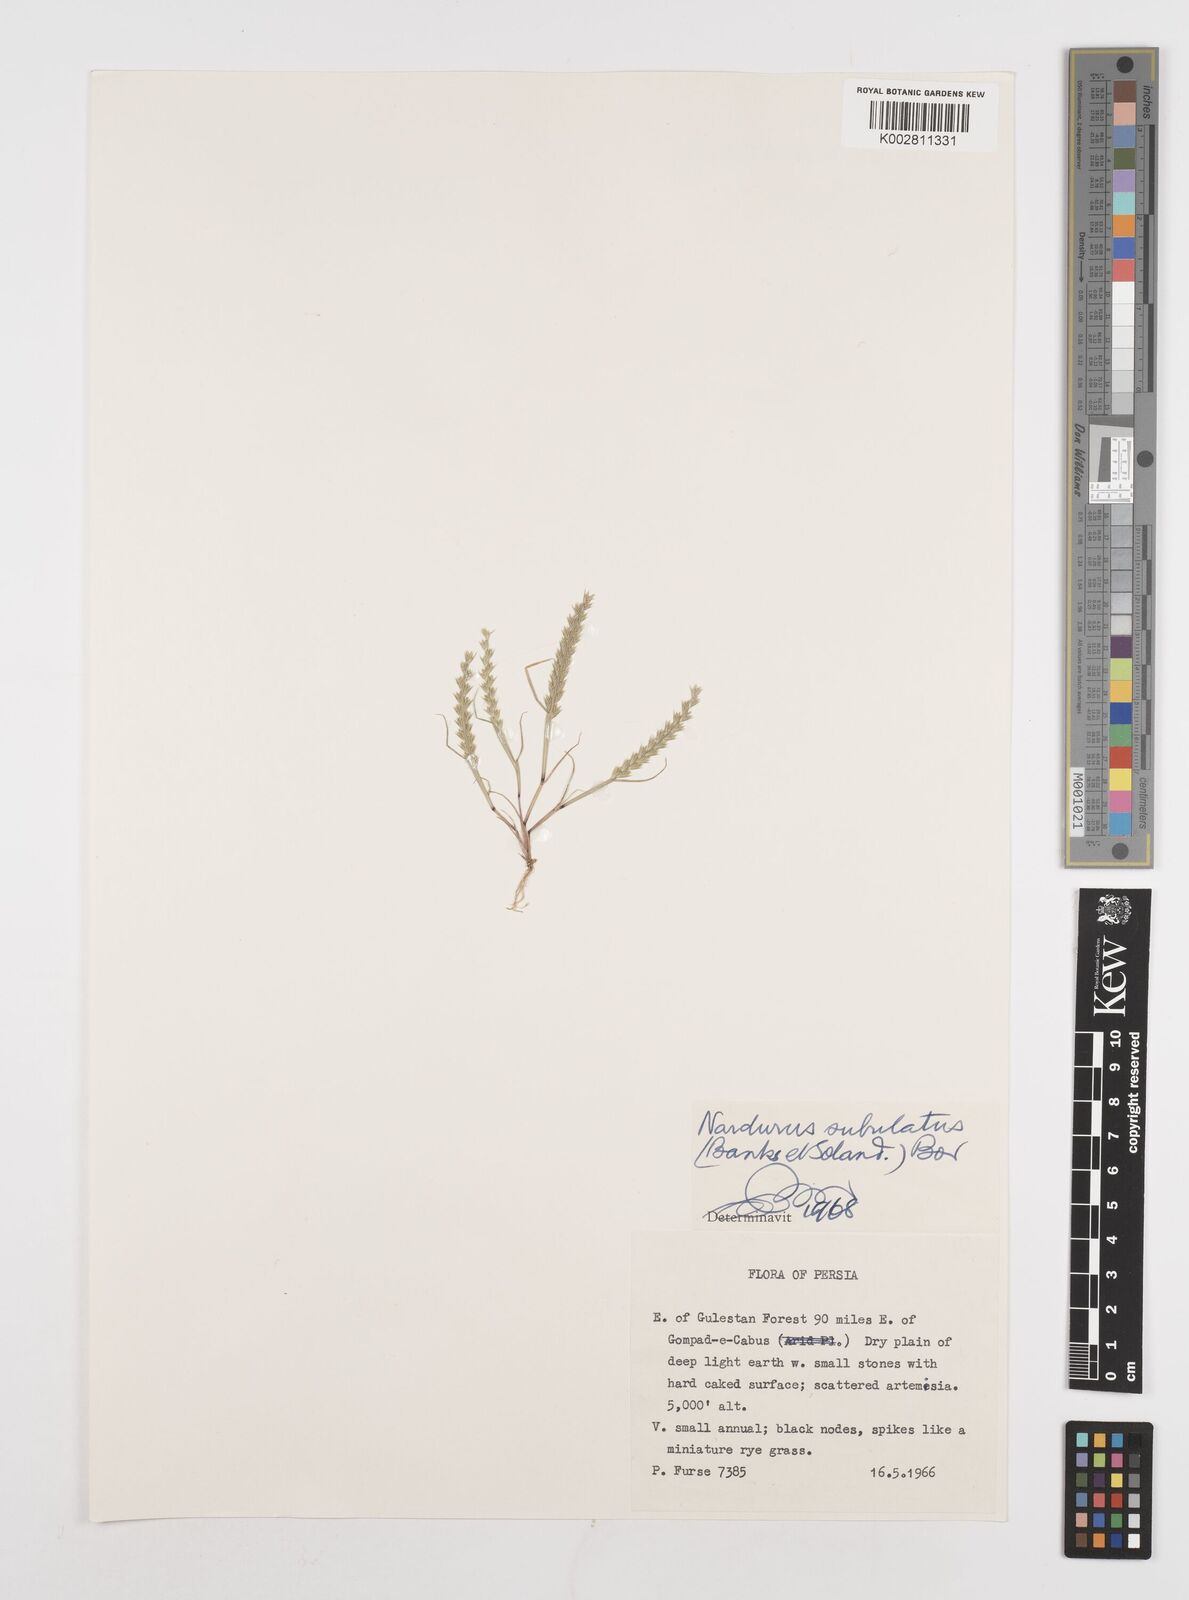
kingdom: Plantae
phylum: Tracheophyta
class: Liliopsida
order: Poales
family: Poaceae
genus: Festuca
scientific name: Festuca orientalis
